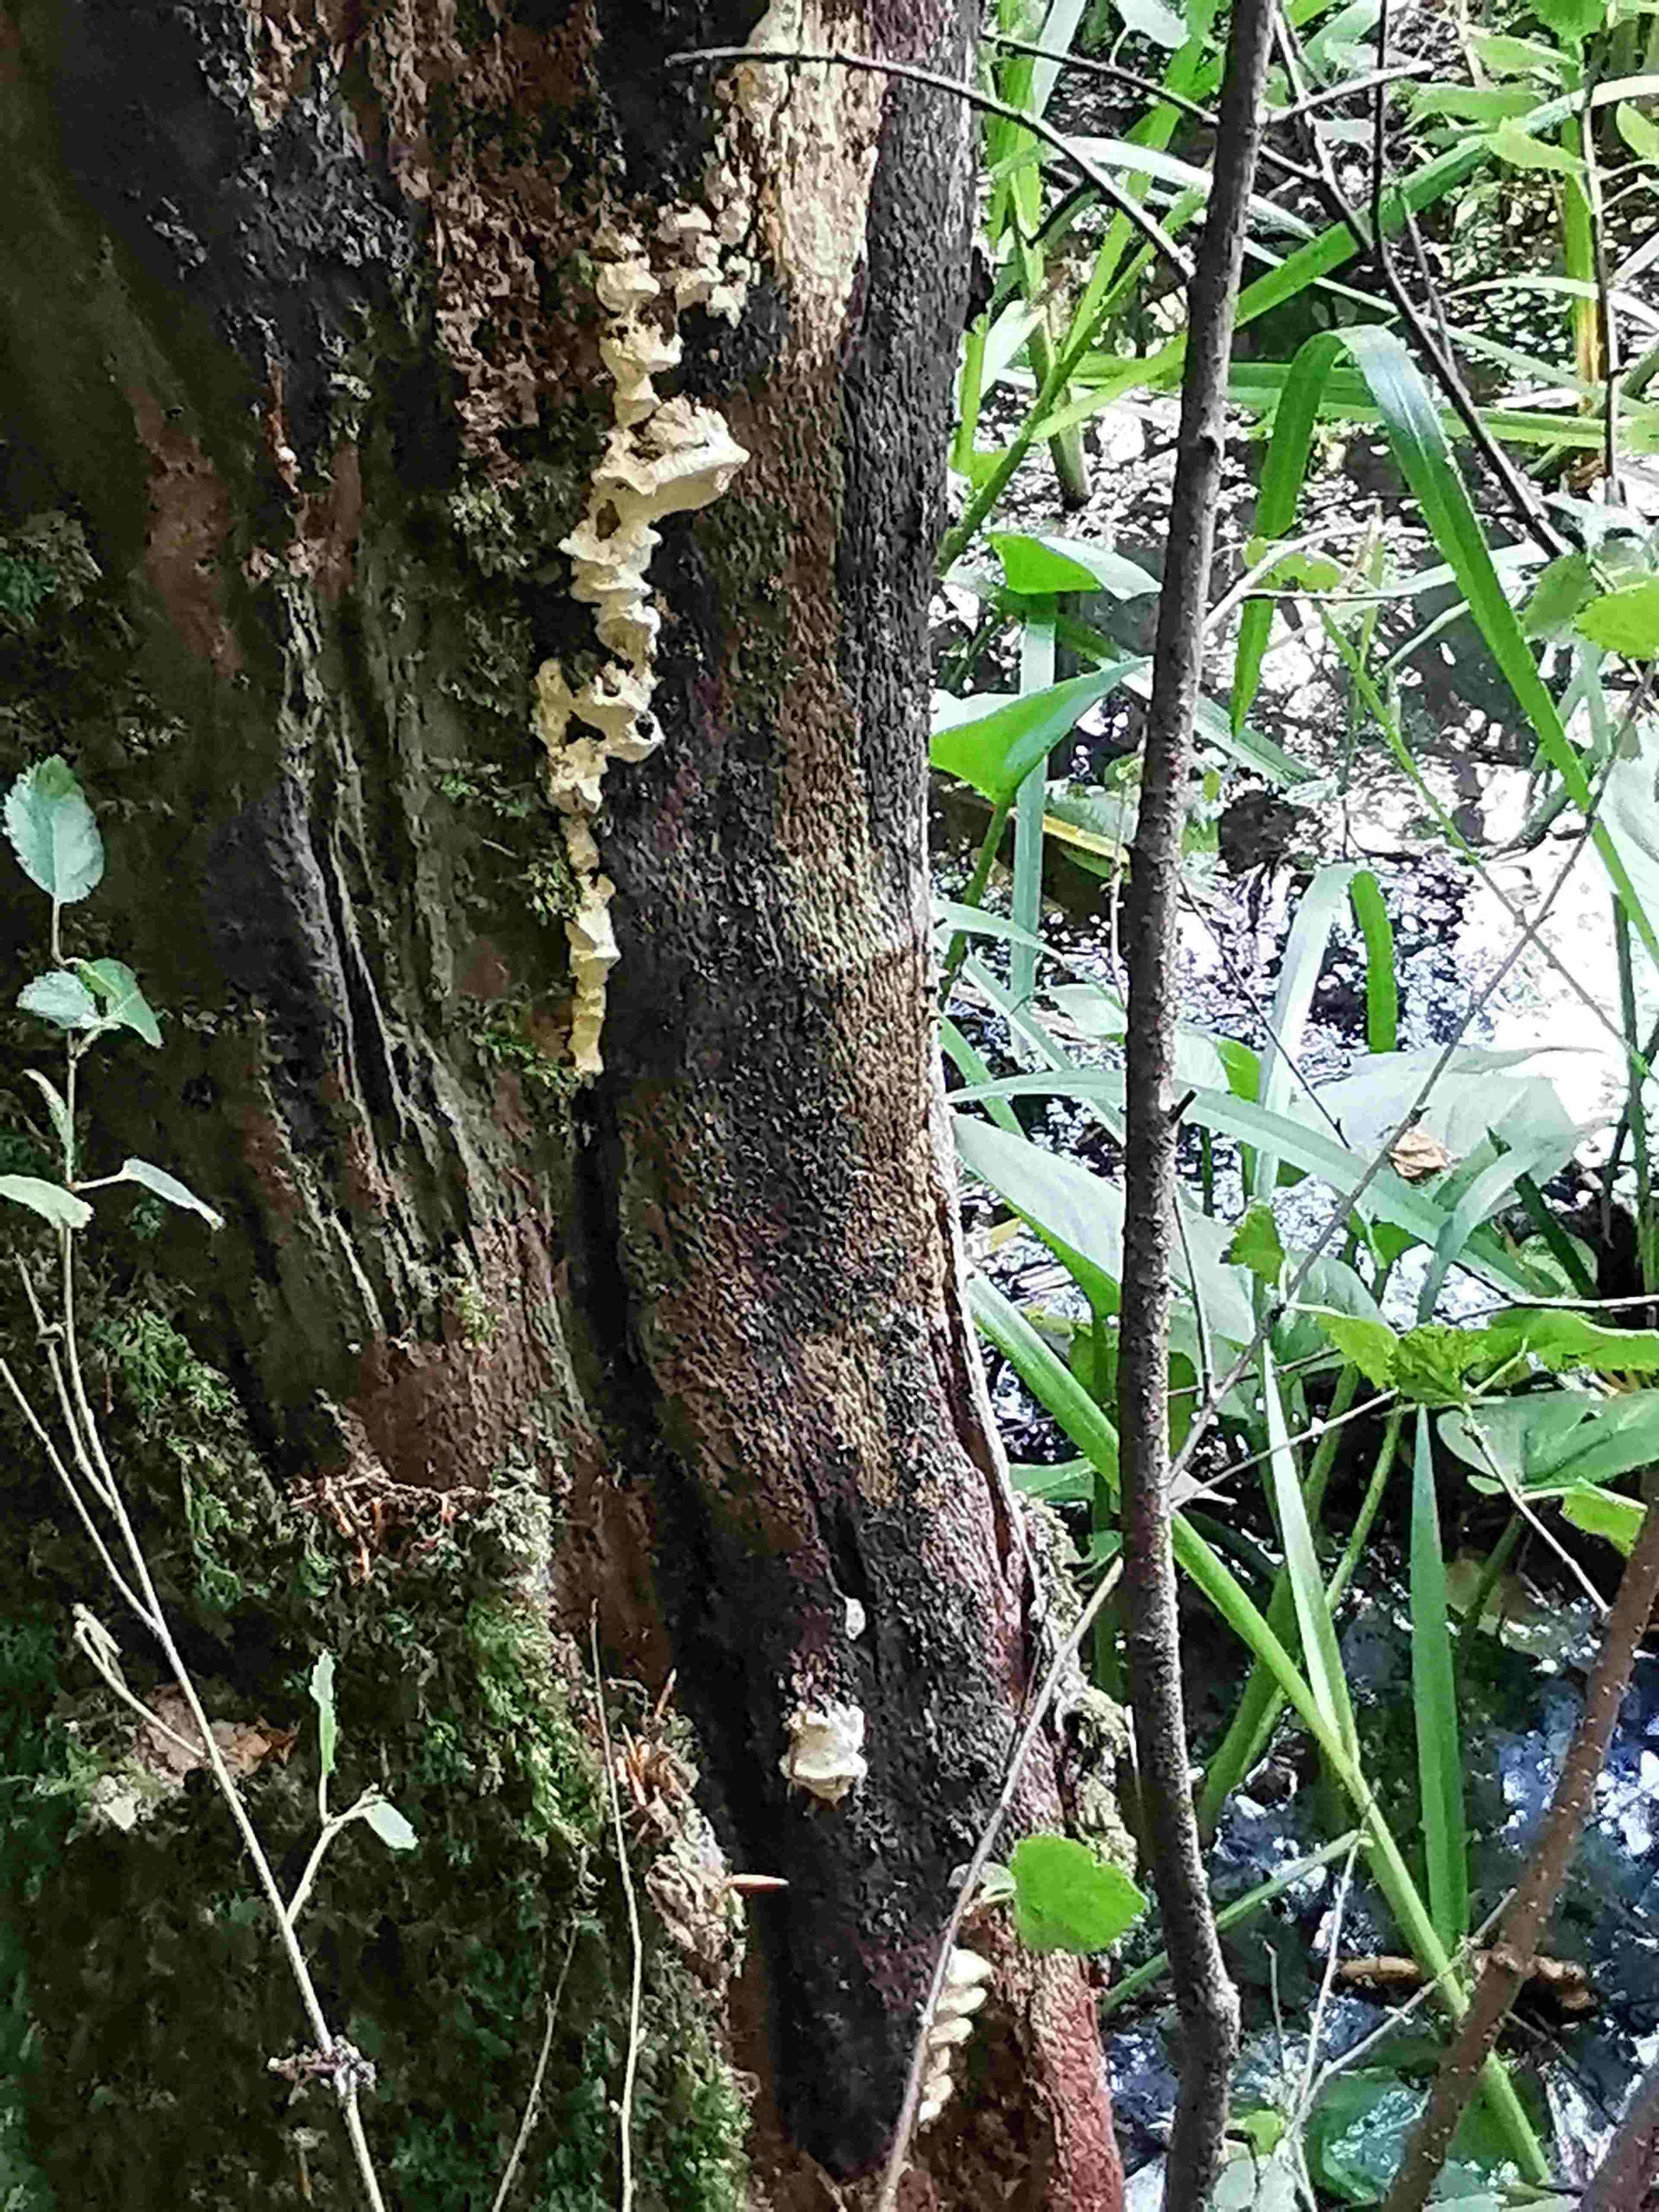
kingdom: Fungi
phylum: Basidiomycota
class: Agaricomycetes
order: Polyporales
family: Steccherinaceae
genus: Antrodiella
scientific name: Antrodiella serpula
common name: gulrandet elastikporesvamp
